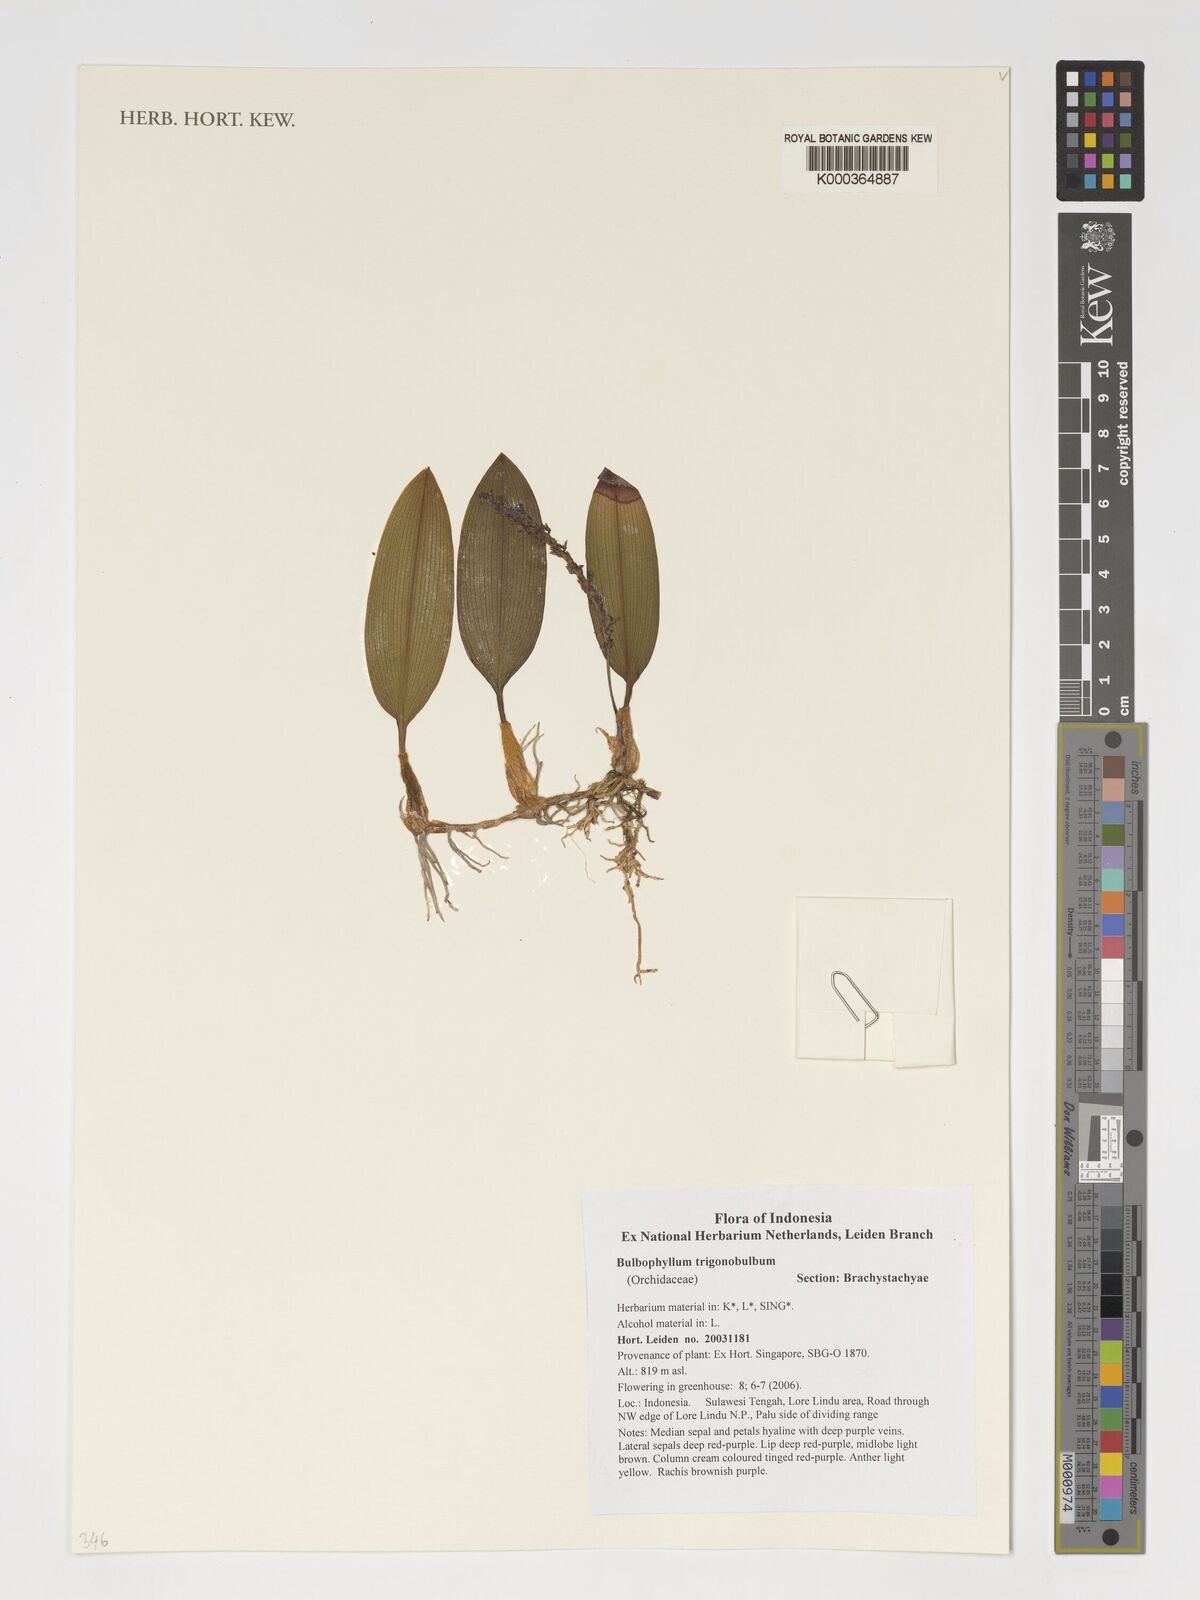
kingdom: Plantae
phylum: Tracheophyta
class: Liliopsida
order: Asparagales
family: Orchidaceae
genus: Bulbophyllum
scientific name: Bulbophyllum trigonobulbum
